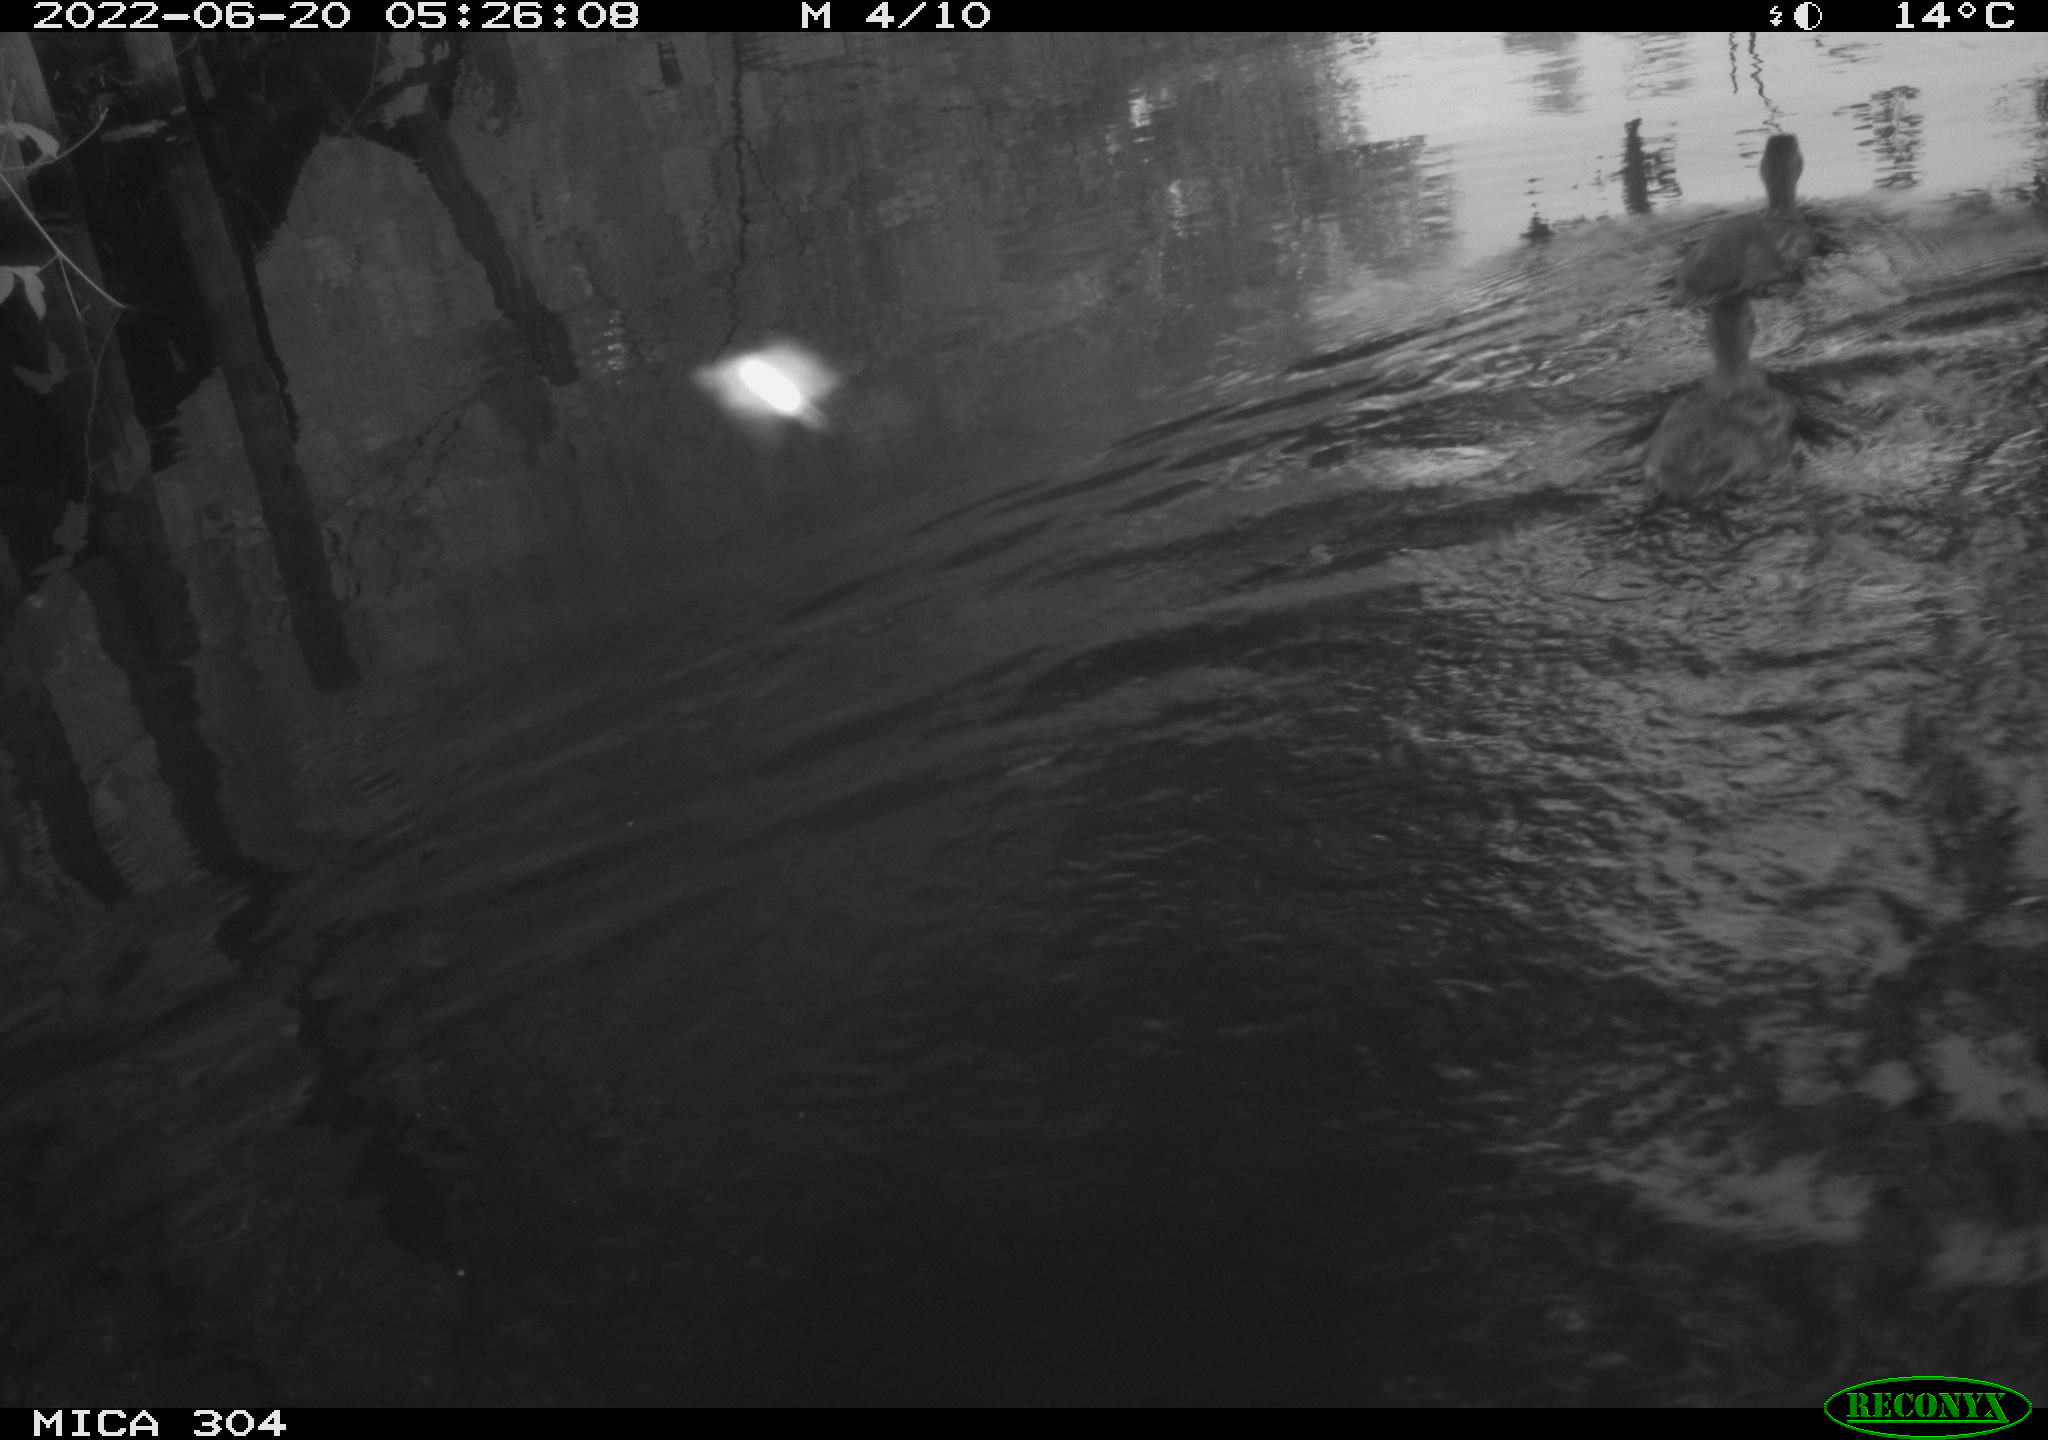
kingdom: Animalia
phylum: Chordata
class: Aves
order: Anseriformes
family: Anatidae
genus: Anas
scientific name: Anas platyrhynchos
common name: Mallard
